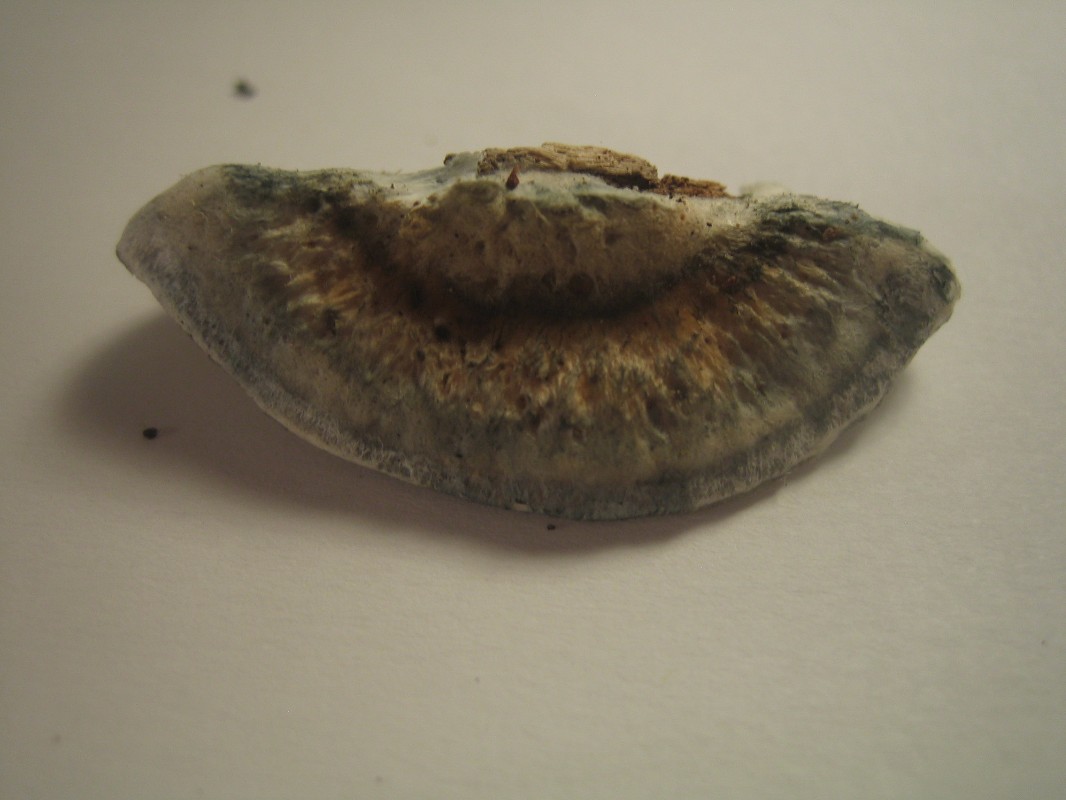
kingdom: Fungi
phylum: Basidiomycota
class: Agaricomycetes
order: Polyporales
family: Dacryobolaceae
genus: Postia
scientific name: Postia
